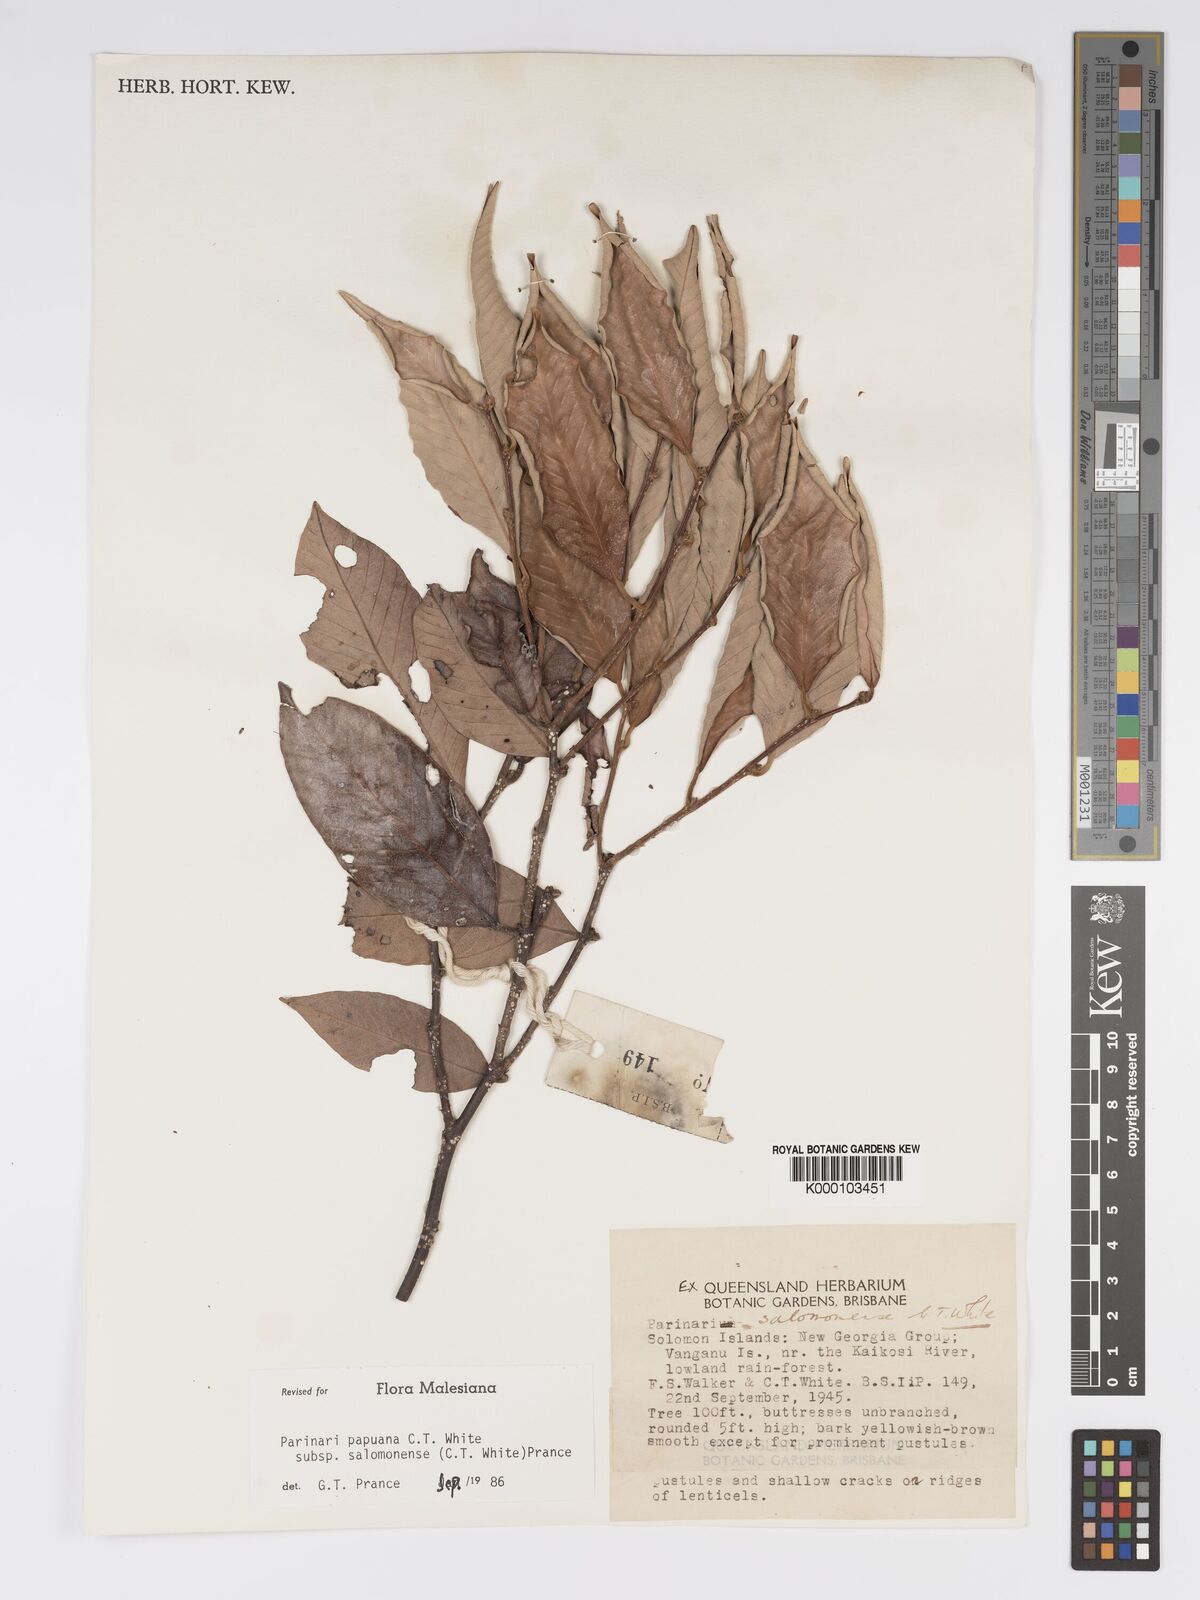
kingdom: Plantae
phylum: Tracheophyta
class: Magnoliopsida
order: Malpighiales
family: Chrysobalanaceae
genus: Parinari
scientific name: Parinari papuana
